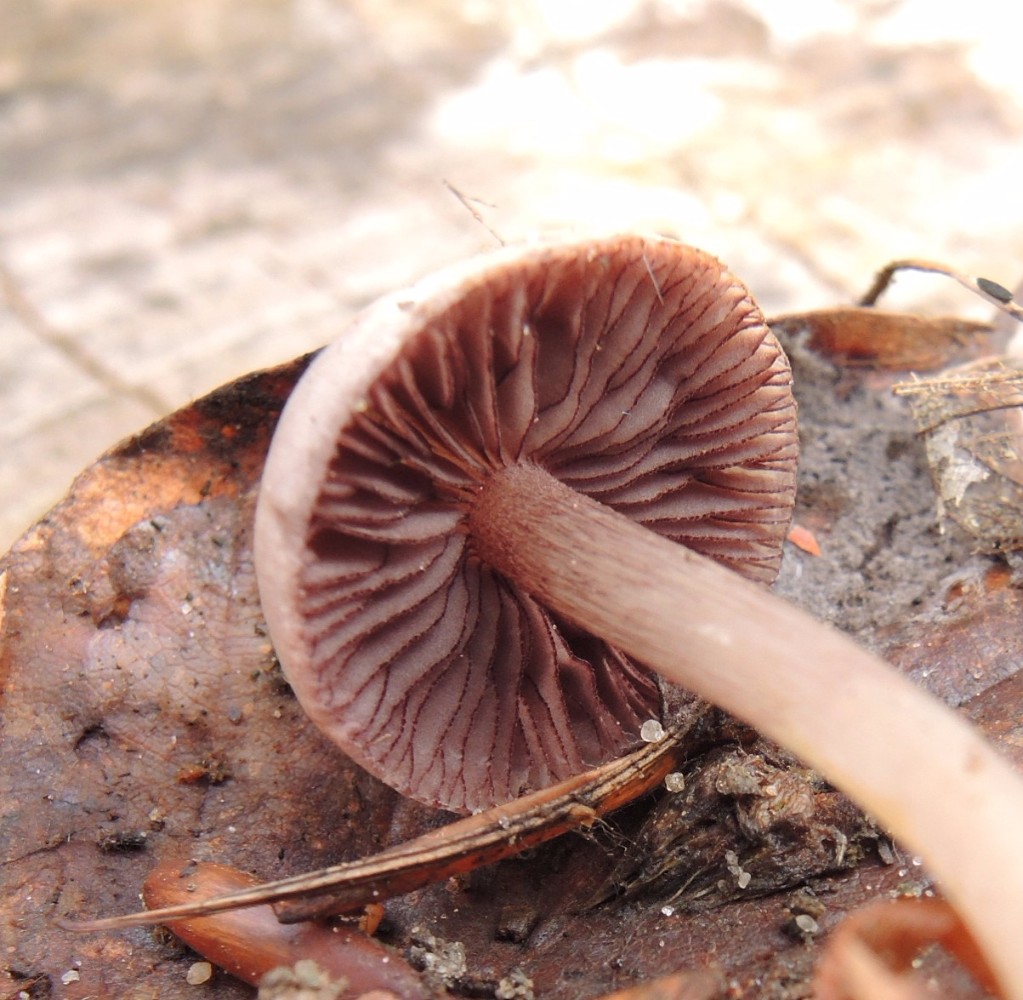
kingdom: Fungi
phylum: Basidiomycota
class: Agaricomycetes
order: Agaricales
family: Mycenaceae
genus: Mycena
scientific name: Mycena pelianthina
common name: mørkbladet huesvamp
